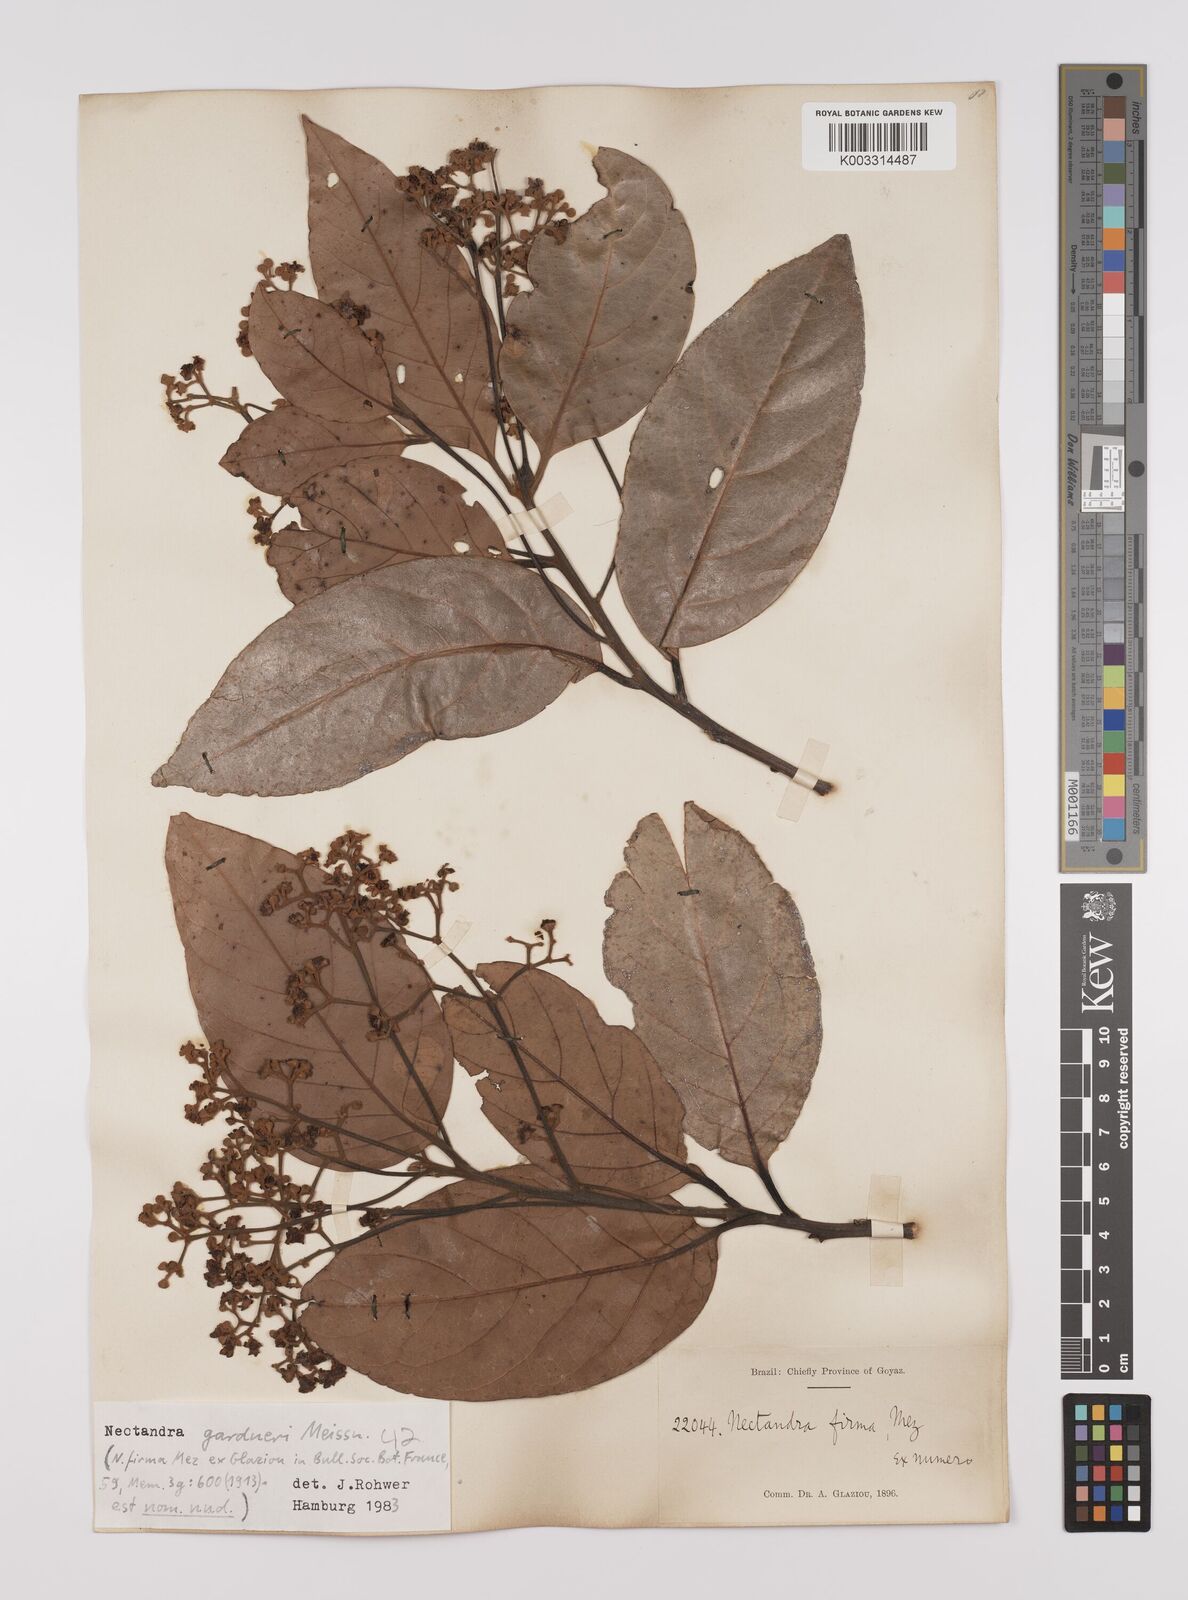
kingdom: Plantae
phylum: Tracheophyta
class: Magnoliopsida
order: Laurales
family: Lauraceae
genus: Nectandra
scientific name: Nectandra gardneri
